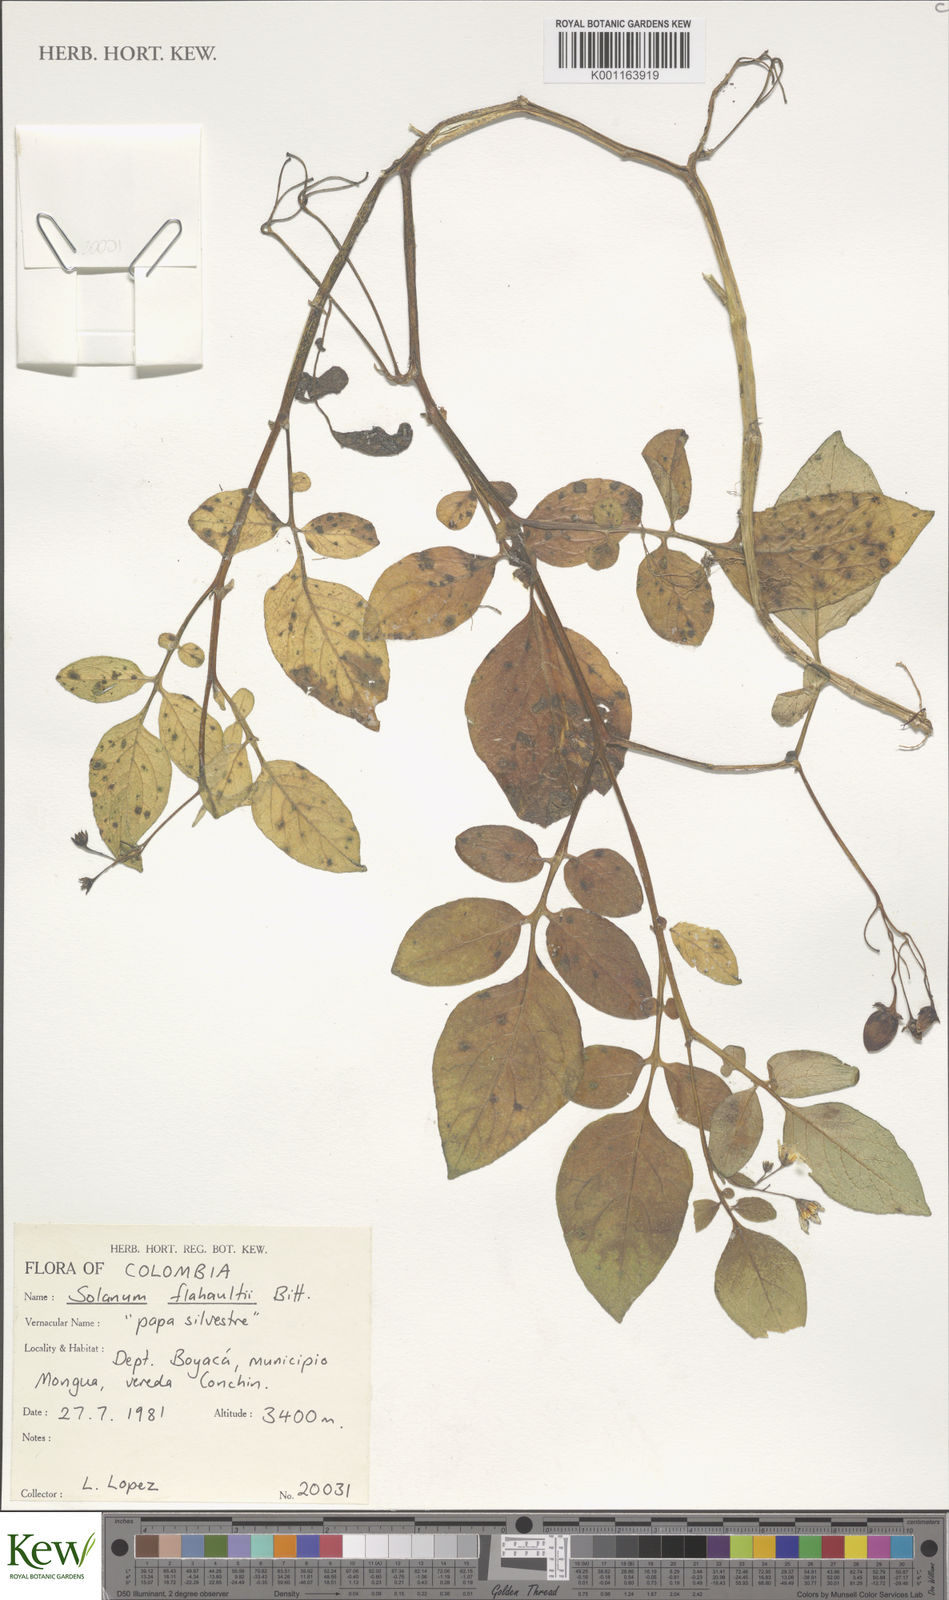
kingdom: Plantae
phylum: Tracheophyta
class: Magnoliopsida
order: Solanales
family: Solanaceae
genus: Solanum
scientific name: Solanum flahaultii
